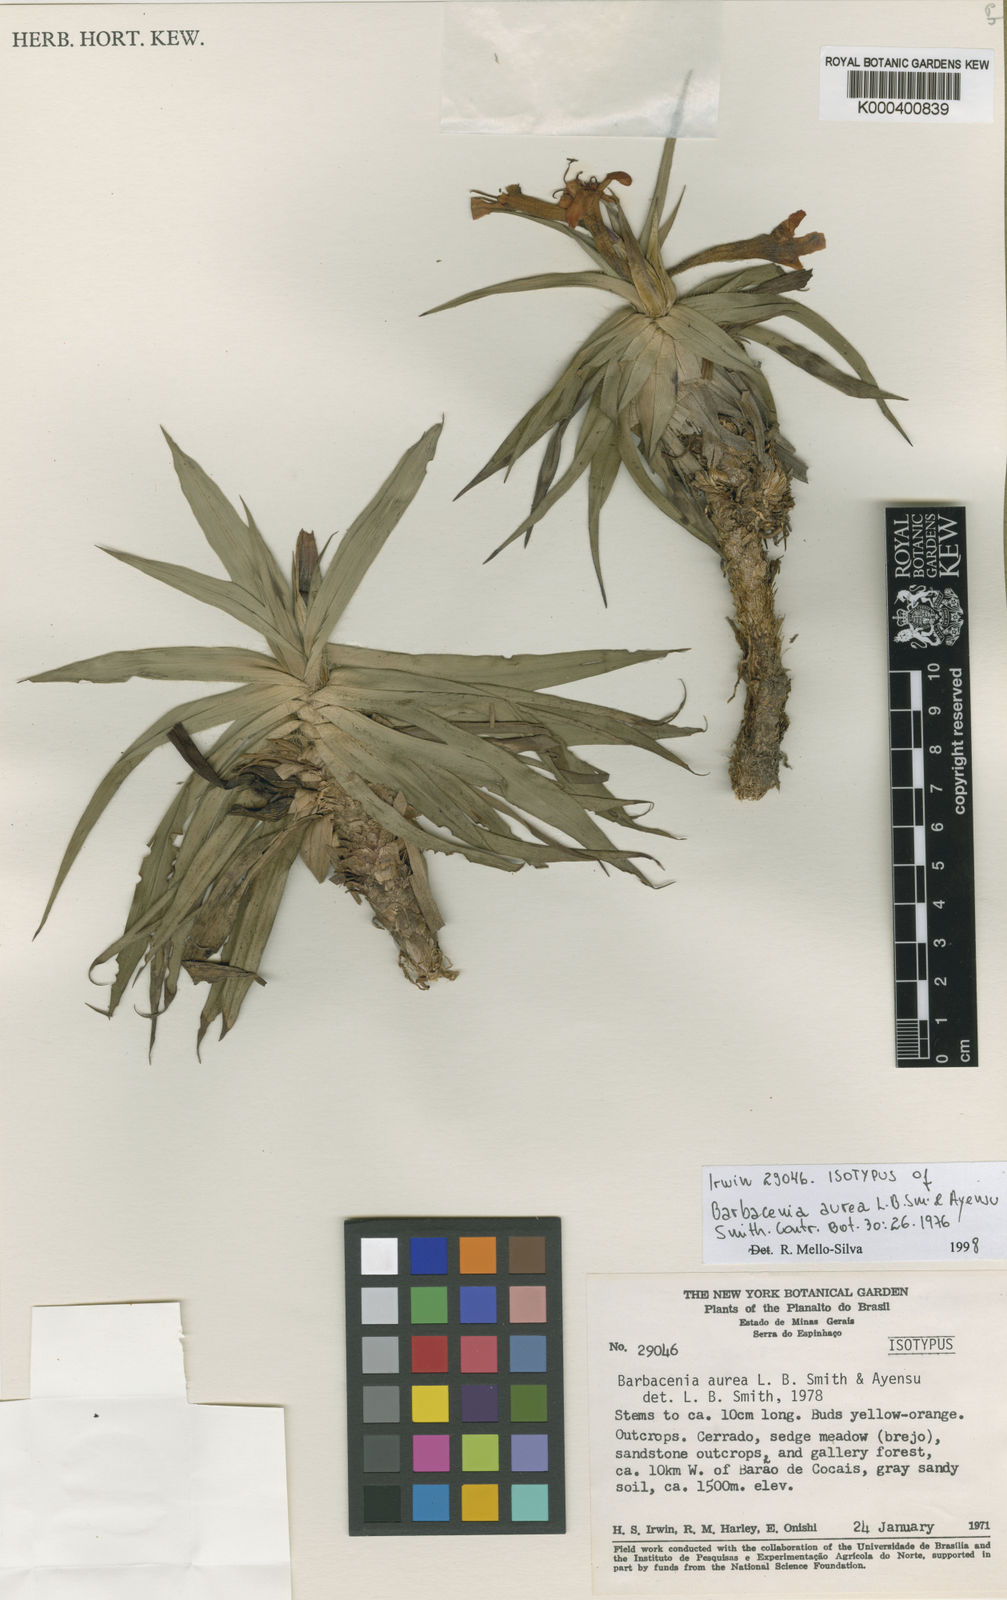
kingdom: Plantae
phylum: Tracheophyta
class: Liliopsida
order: Pandanales
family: Velloziaceae
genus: Barbacenia
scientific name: Barbacenia aurea
